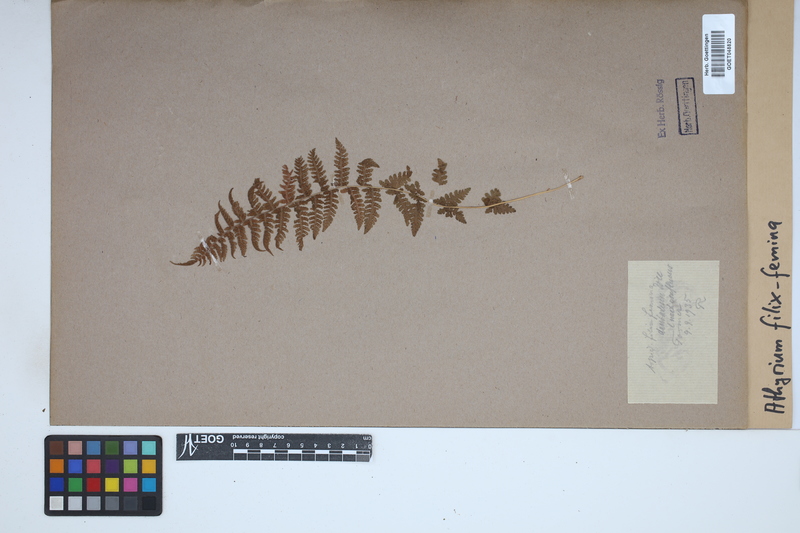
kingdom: Plantae
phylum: Tracheophyta
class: Polypodiopsida
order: Polypodiales
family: Athyriaceae
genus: Athyrium
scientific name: Athyrium filix-femina
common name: Lady fern
